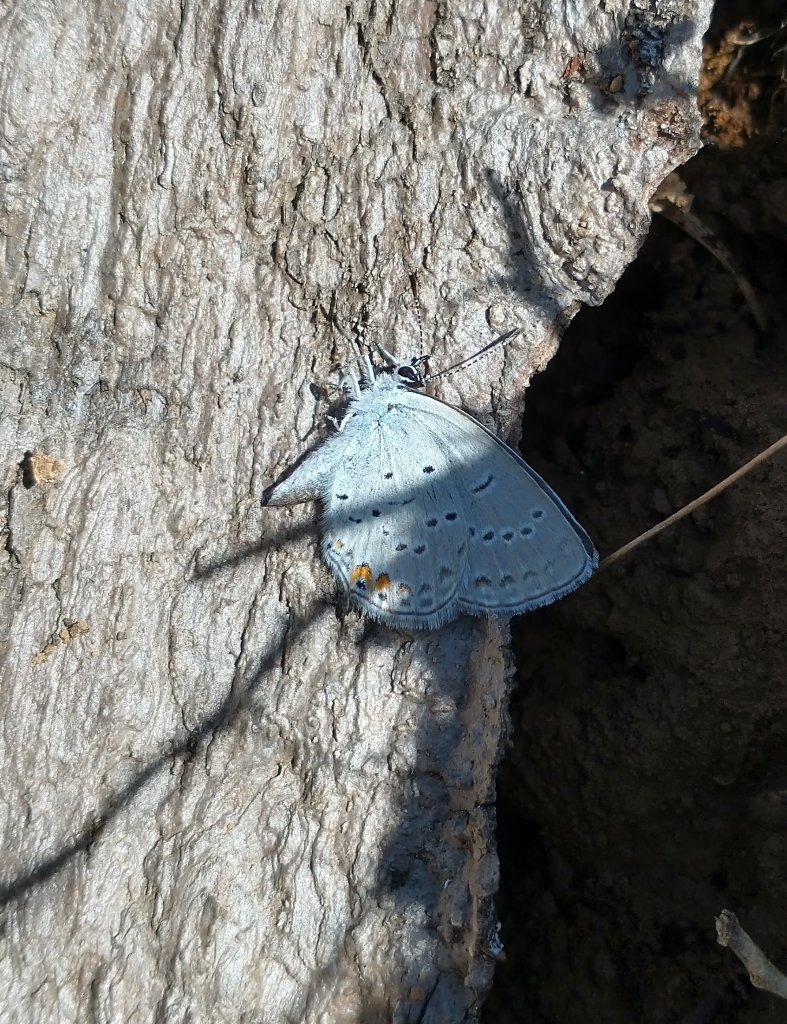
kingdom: Animalia
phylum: Arthropoda
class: Insecta
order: Lepidoptera
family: Lycaenidae
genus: Elkalyce
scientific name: Elkalyce comyntas
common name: Eastern Tailed-Blue
